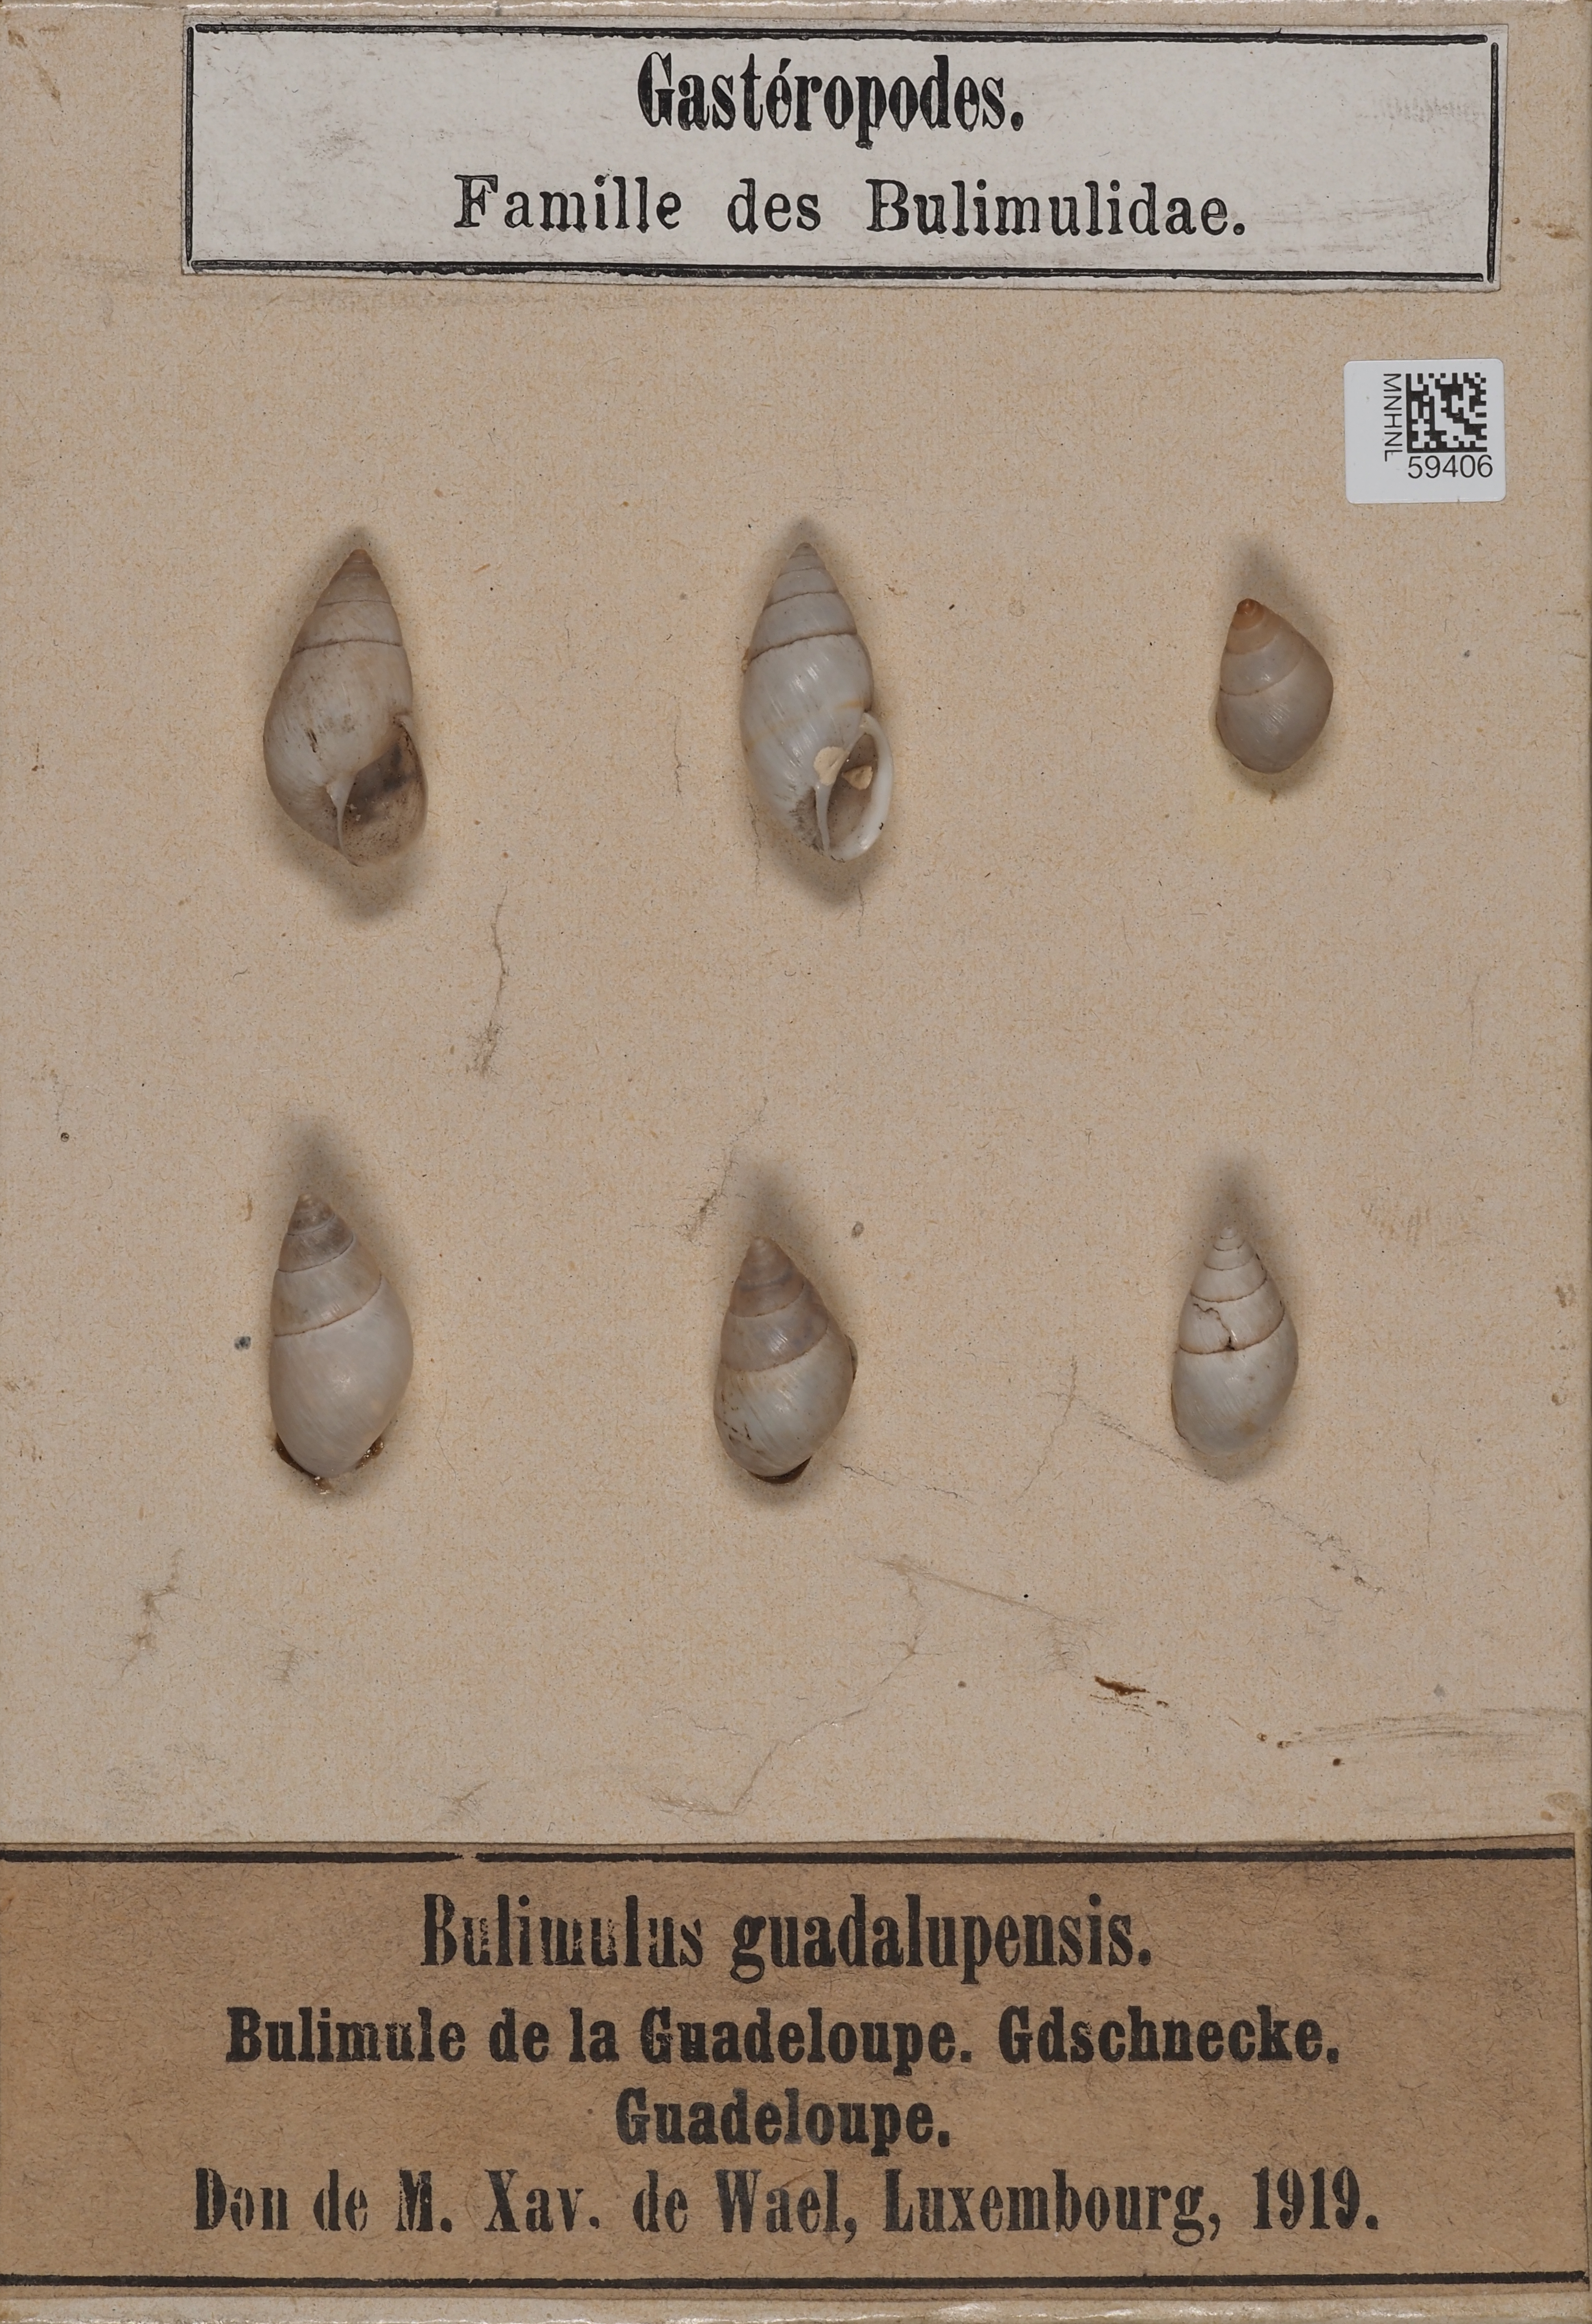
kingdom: Animalia
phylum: Mollusca
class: Gastropoda
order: Stylommatophora
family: Bulimulidae
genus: Bulimulus
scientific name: Bulimulus guadalupensis
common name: West indian bulimulus
